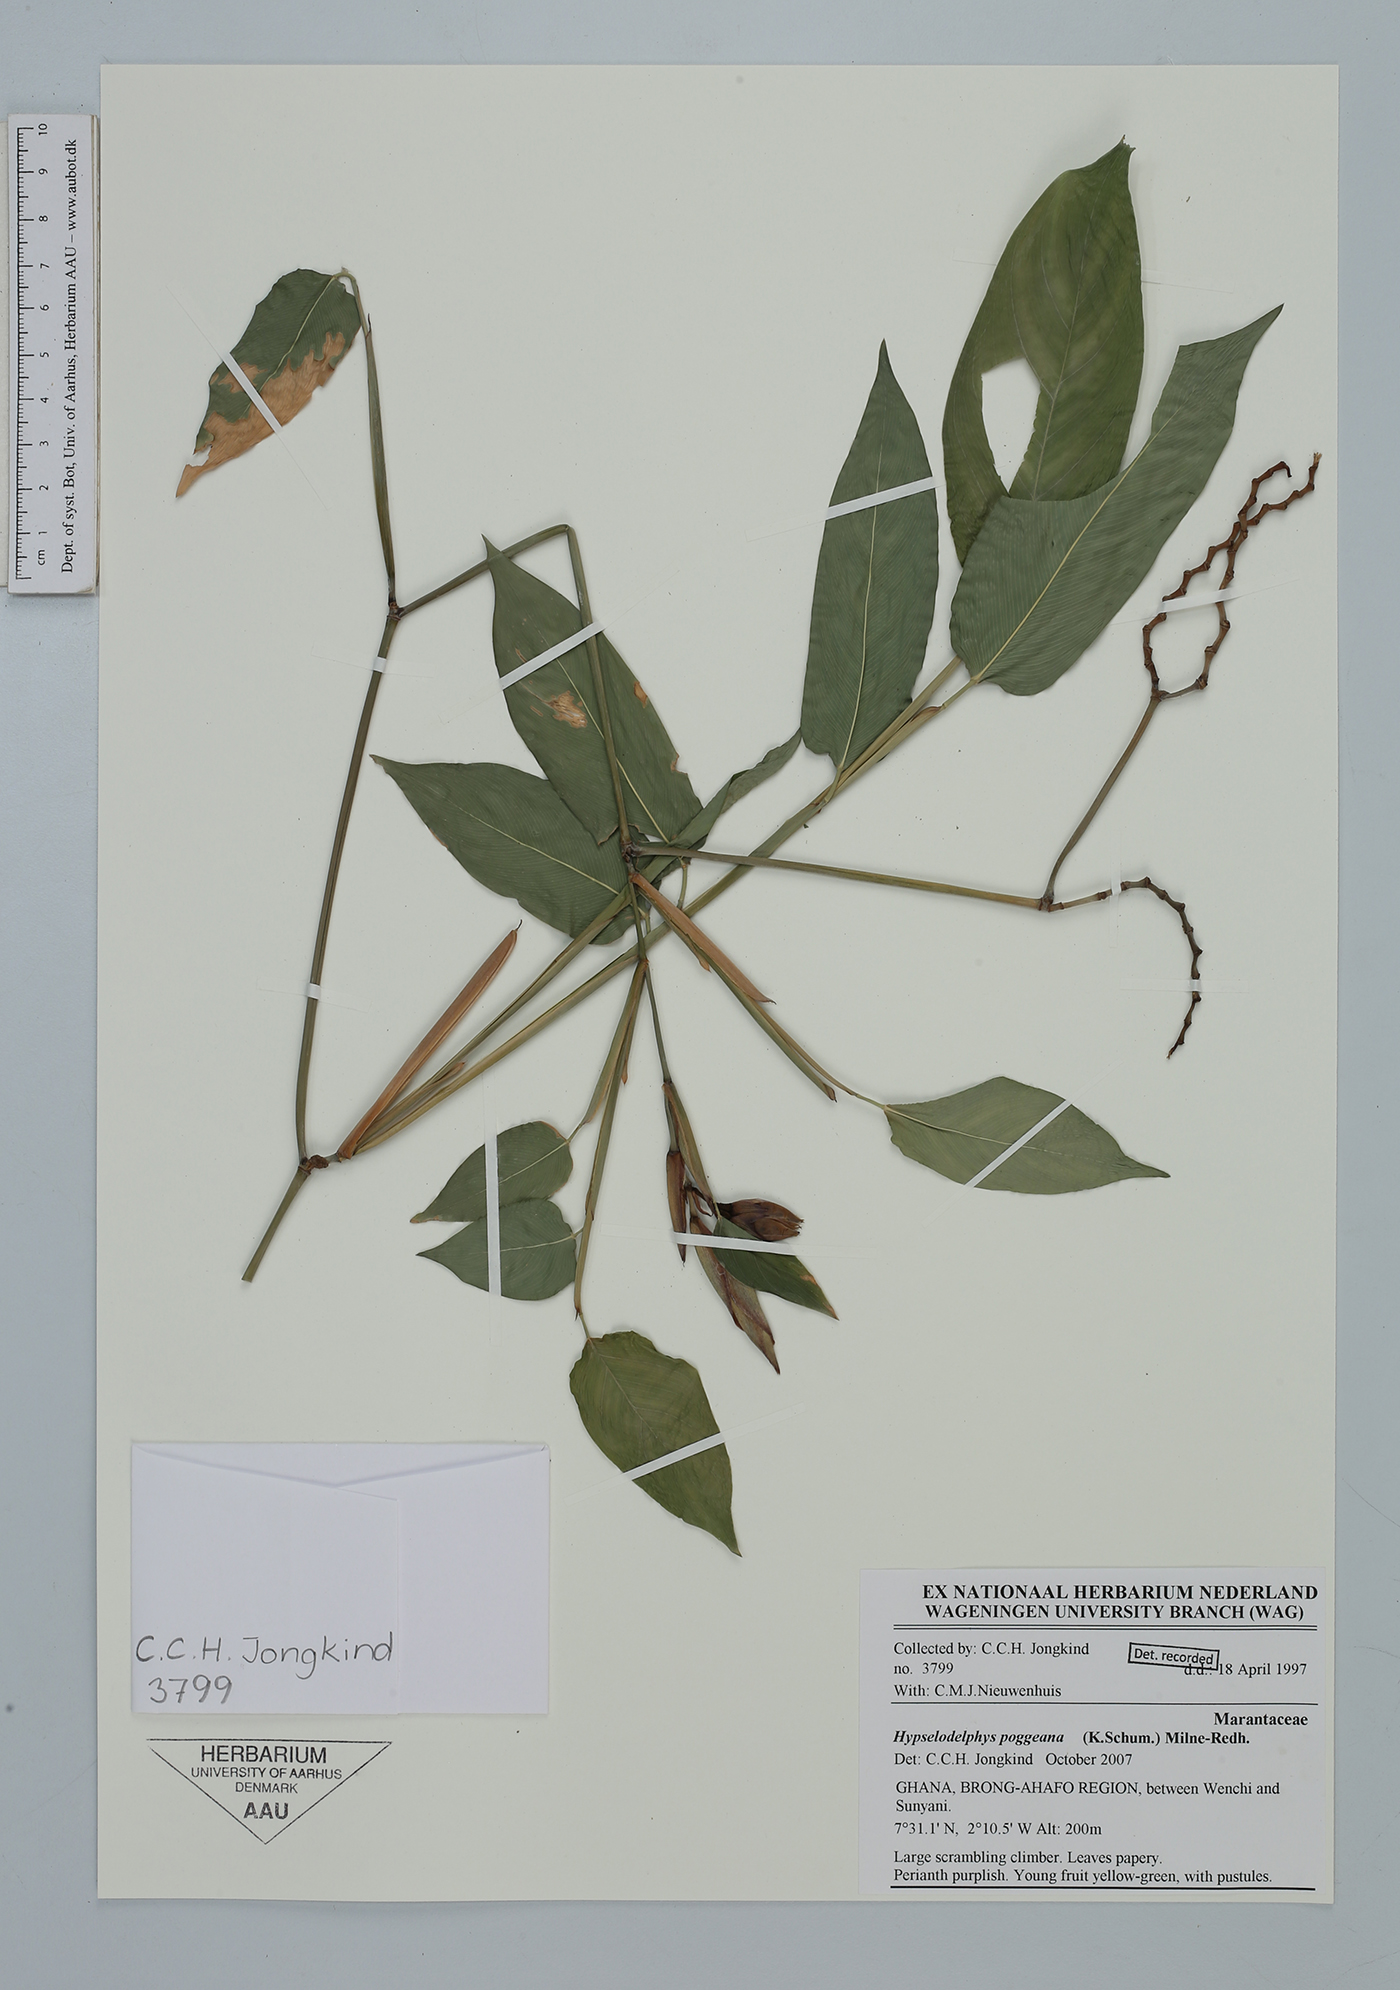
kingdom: Plantae
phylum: Tracheophyta
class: Liliopsida
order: Zingiberales
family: Marantaceae
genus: Hypselodelphys
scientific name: Hypselodelphys poggeana
